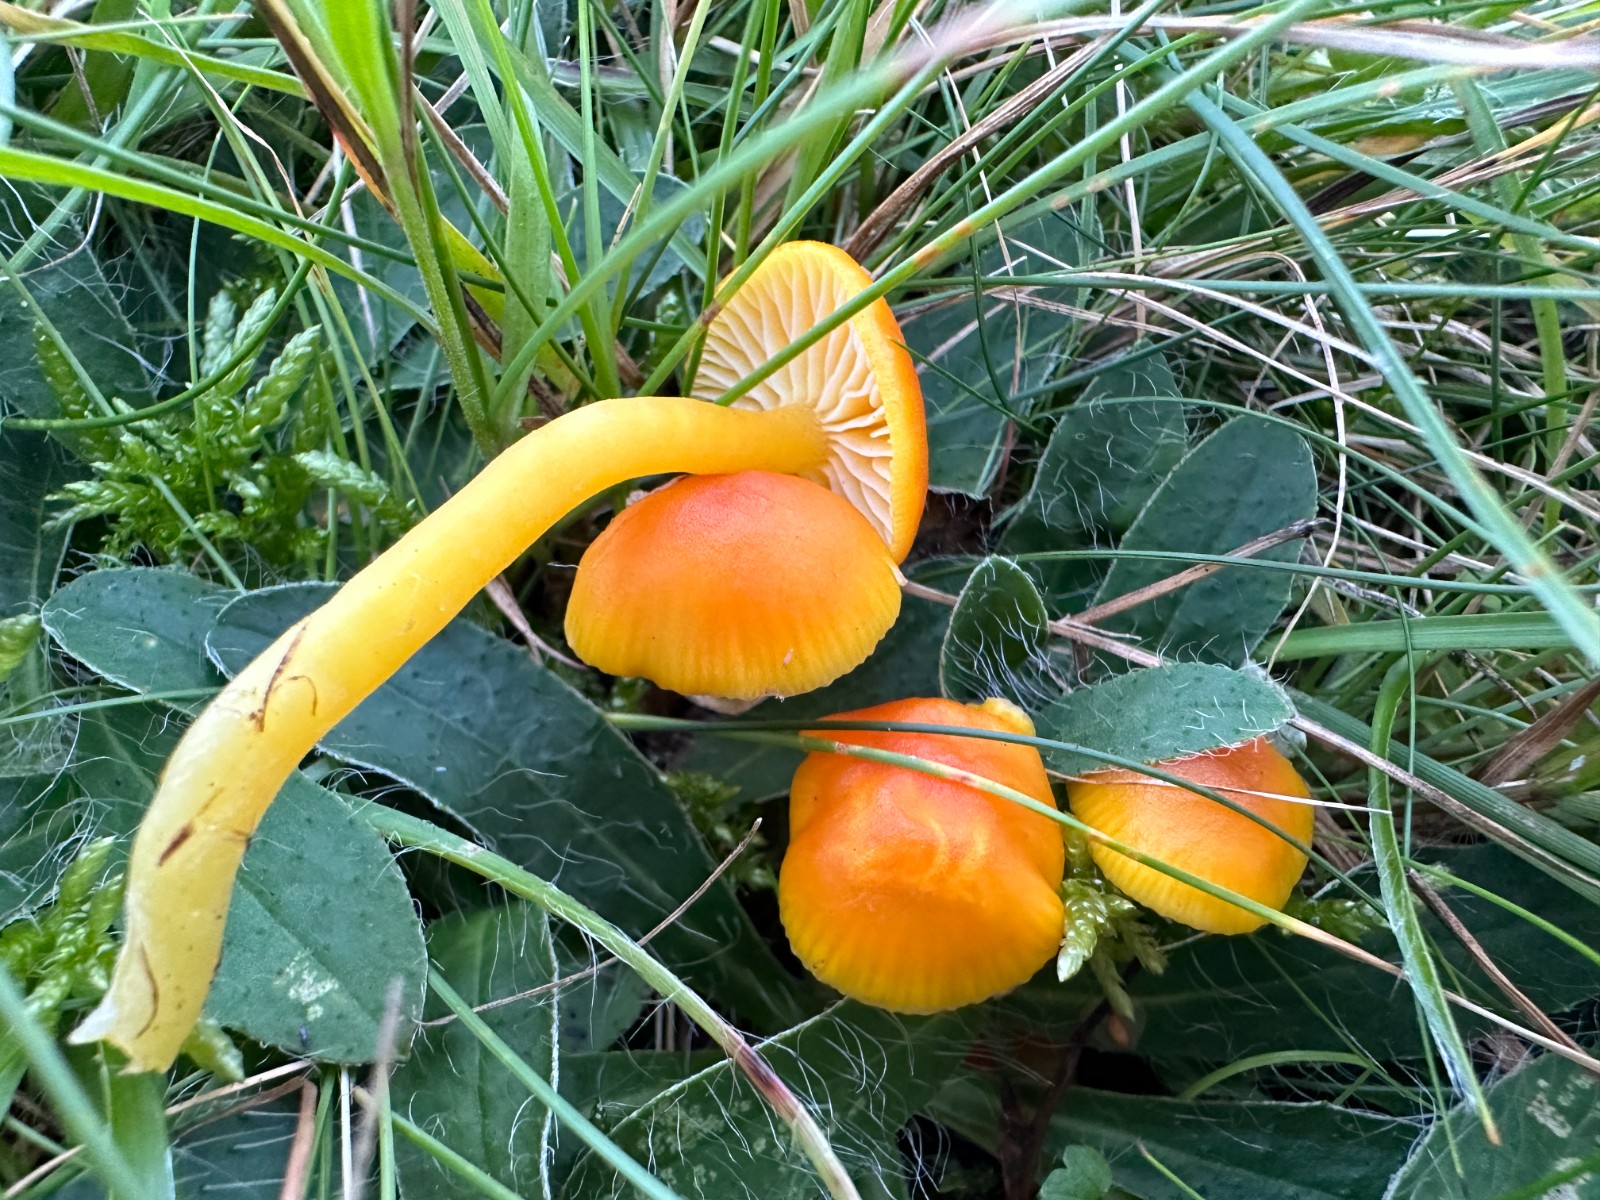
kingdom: Fungi
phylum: Basidiomycota
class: Agaricomycetes
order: Agaricales
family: Hygrophoraceae
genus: Hygrocybe
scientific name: Hygrocybe ceracea
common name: voksgul vokshat
